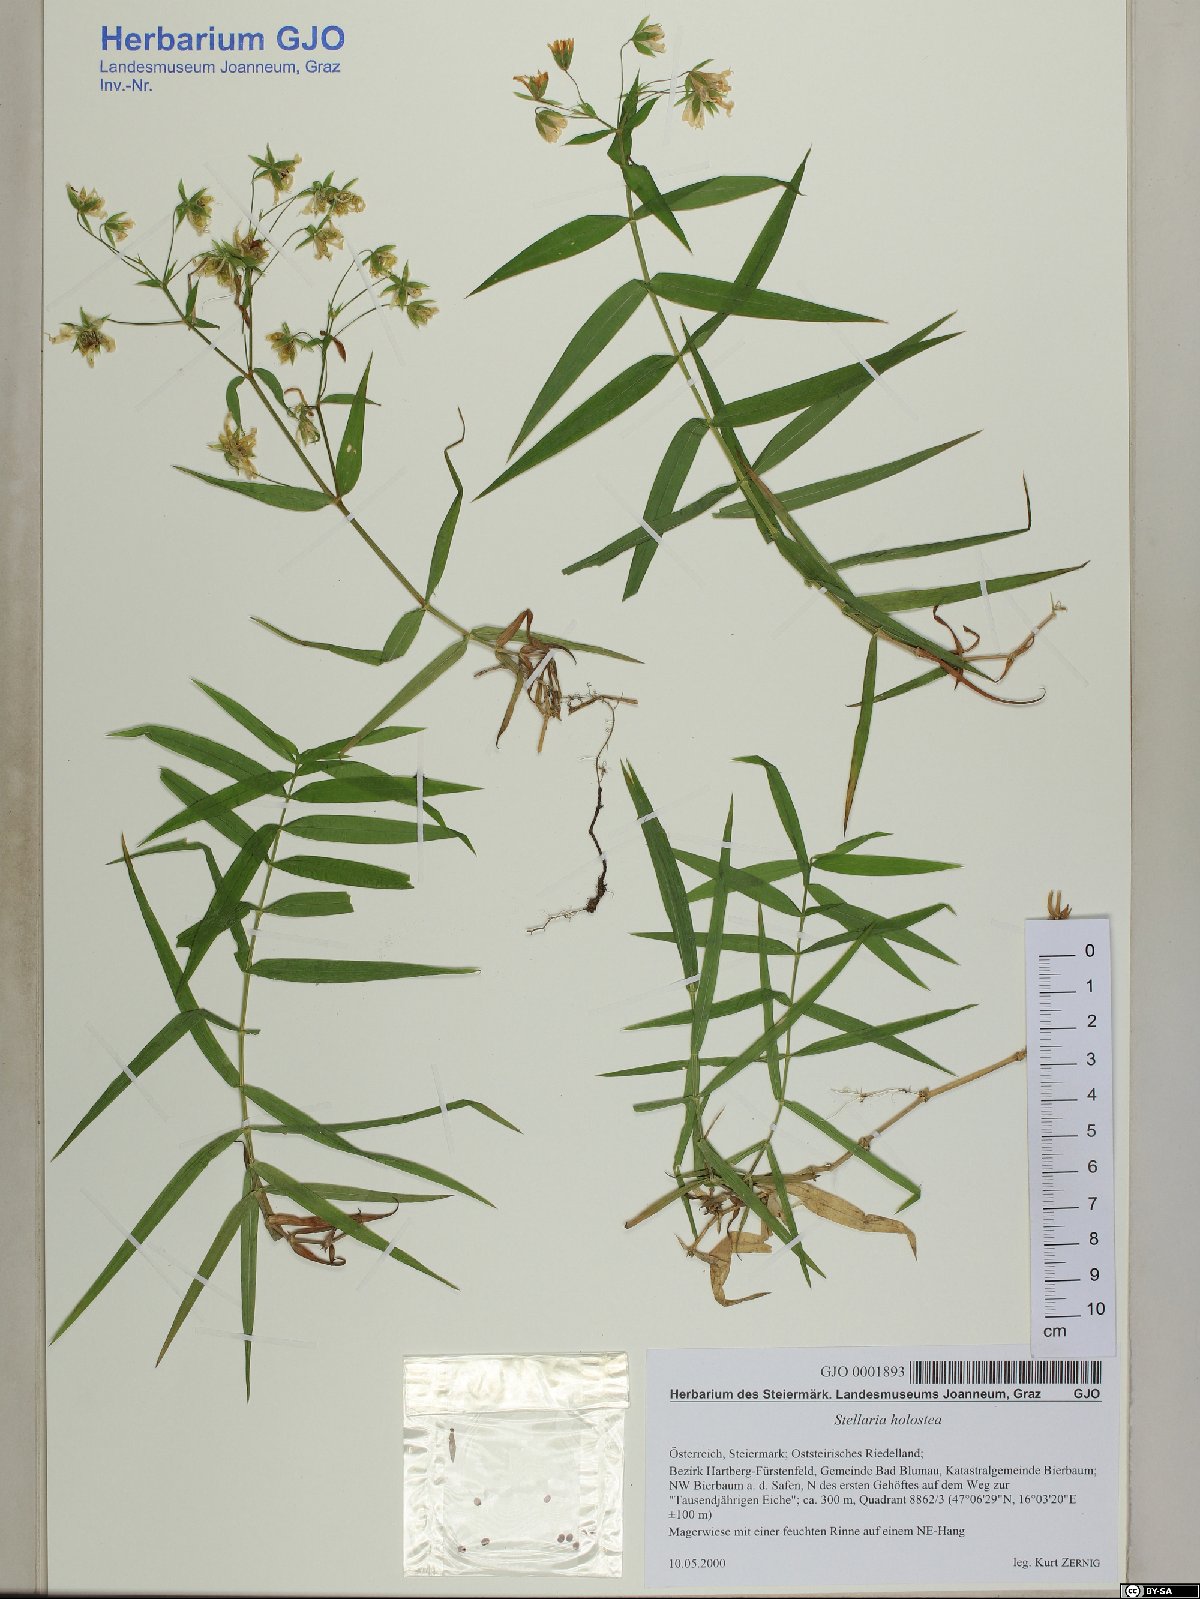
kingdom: Plantae
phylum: Tracheophyta
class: Magnoliopsida
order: Caryophyllales
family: Caryophyllaceae
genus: Rabelera
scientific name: Rabelera holostea
